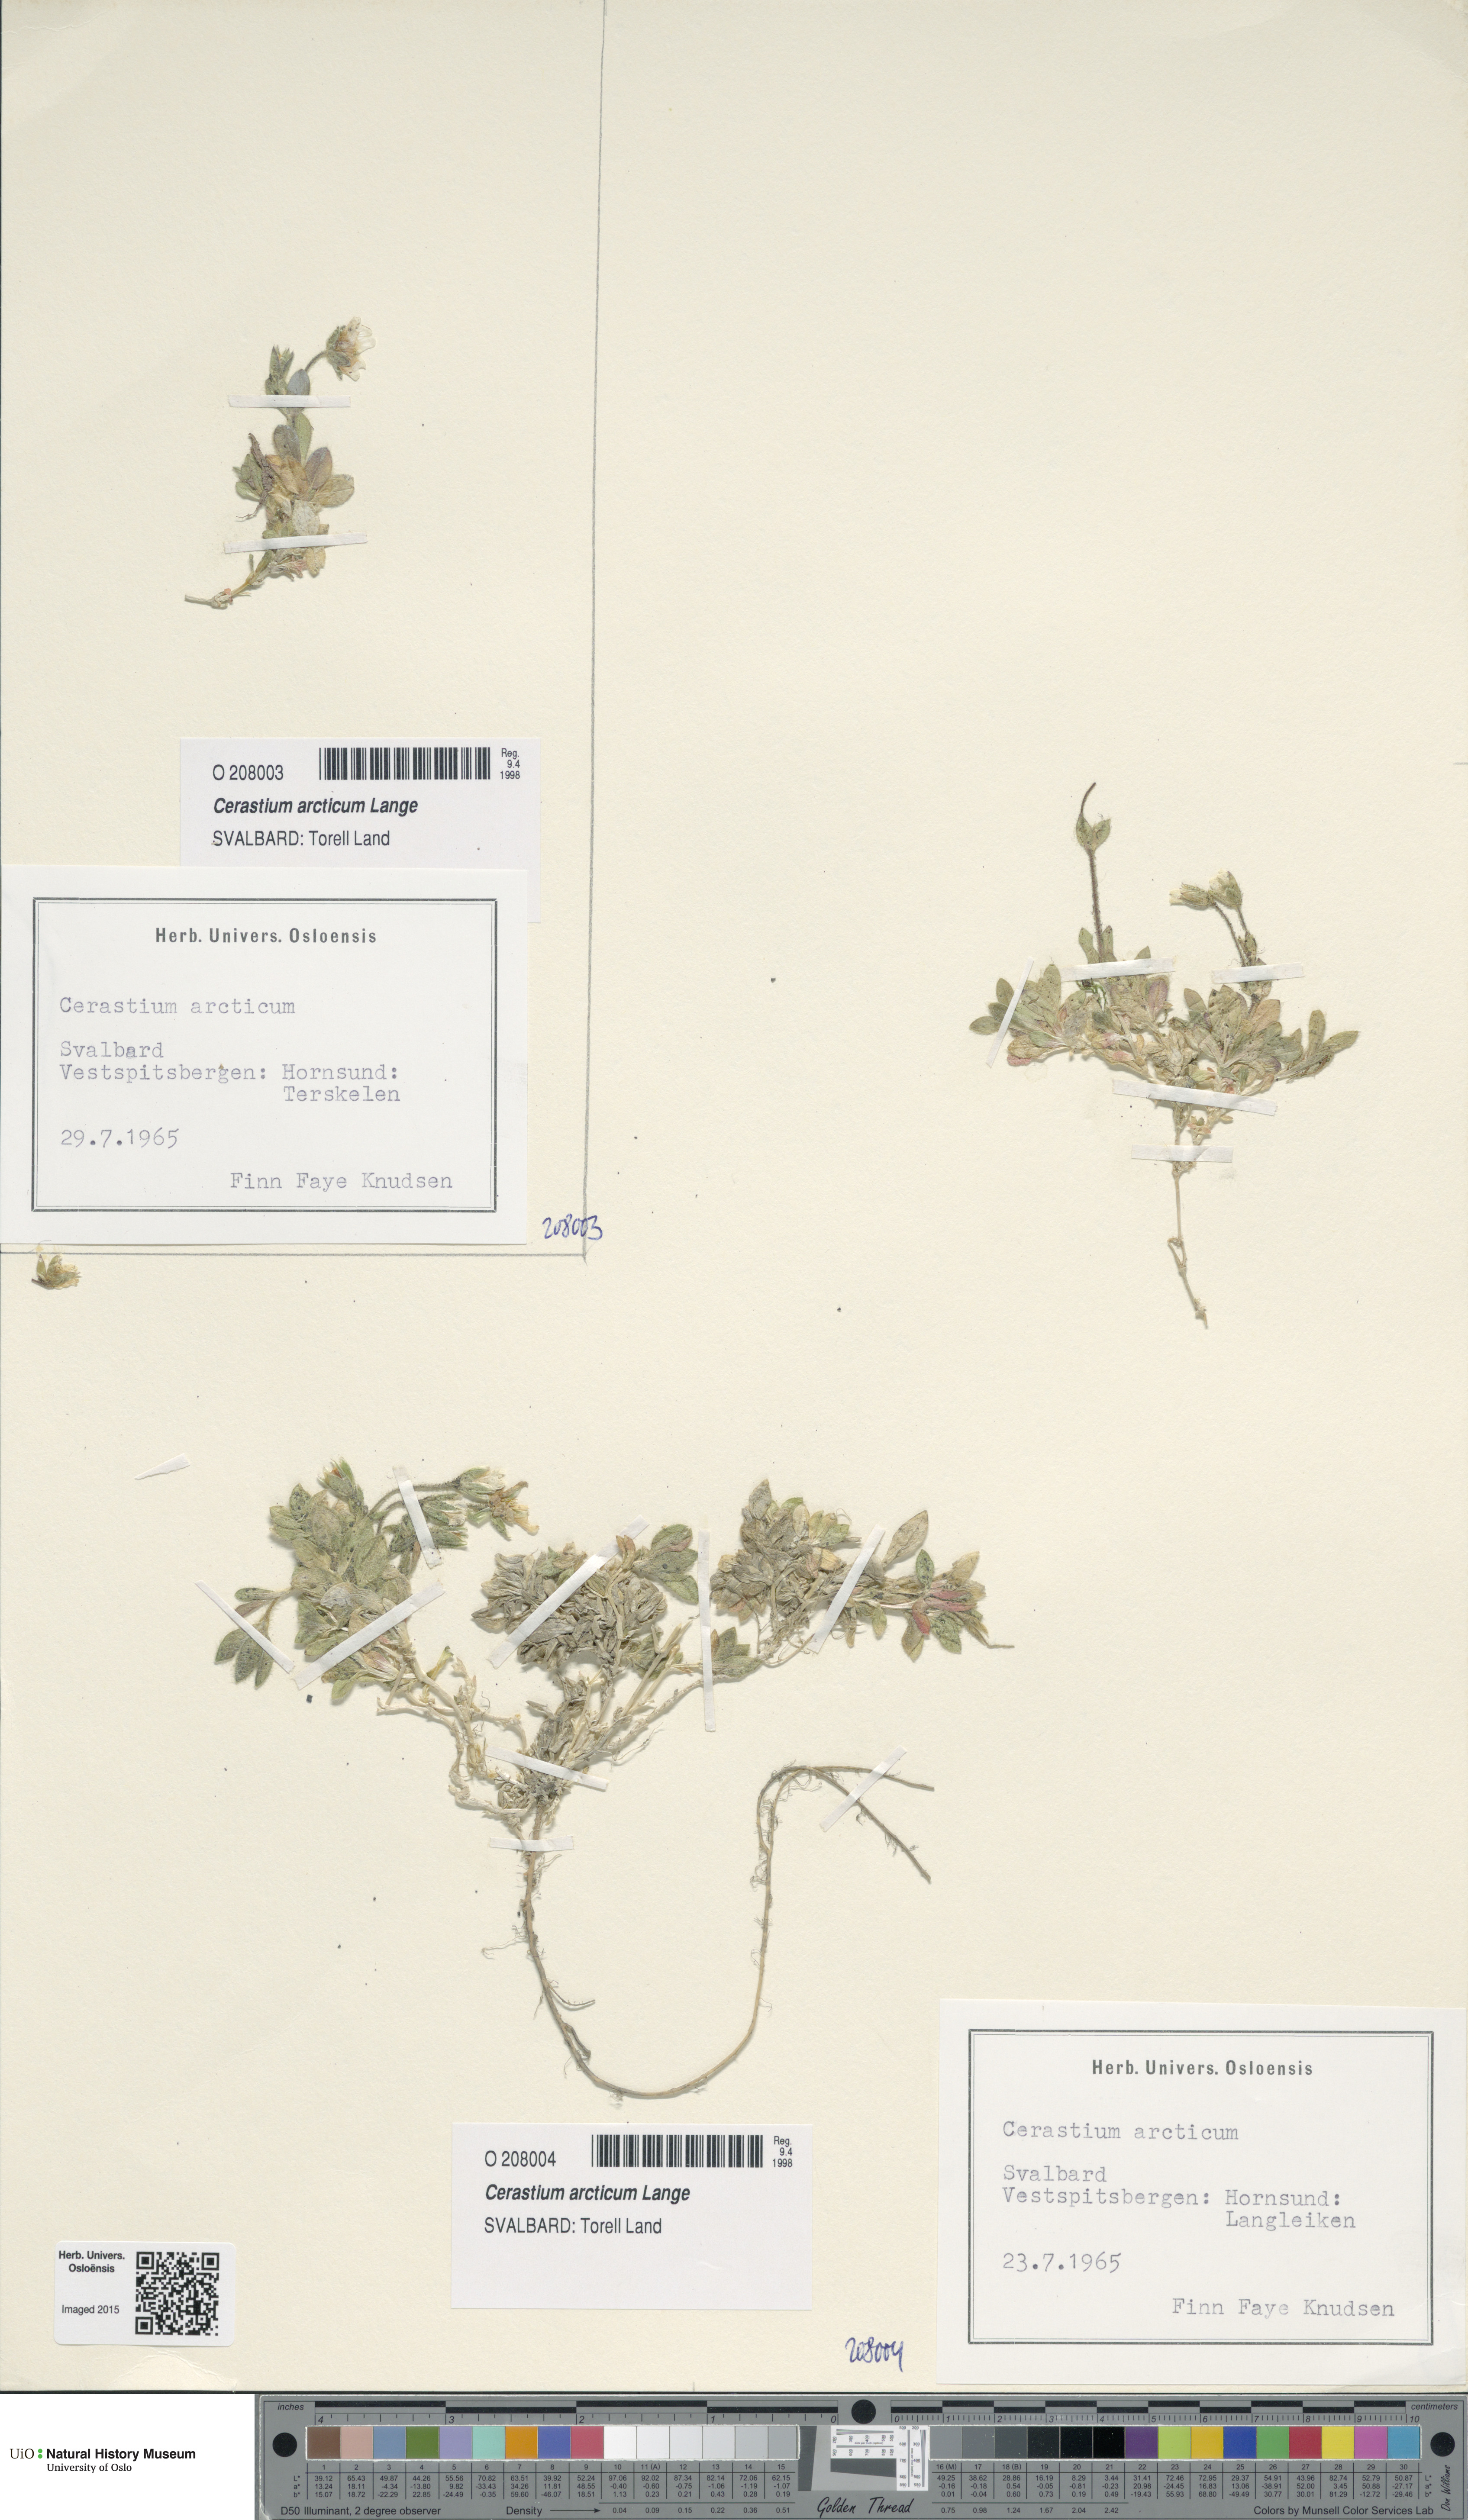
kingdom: Plantae
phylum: Tracheophyta
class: Magnoliopsida
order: Caryophyllales
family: Caryophyllaceae
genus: Cerastium
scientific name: Cerastium arcticum
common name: Arctic mouse-ear
